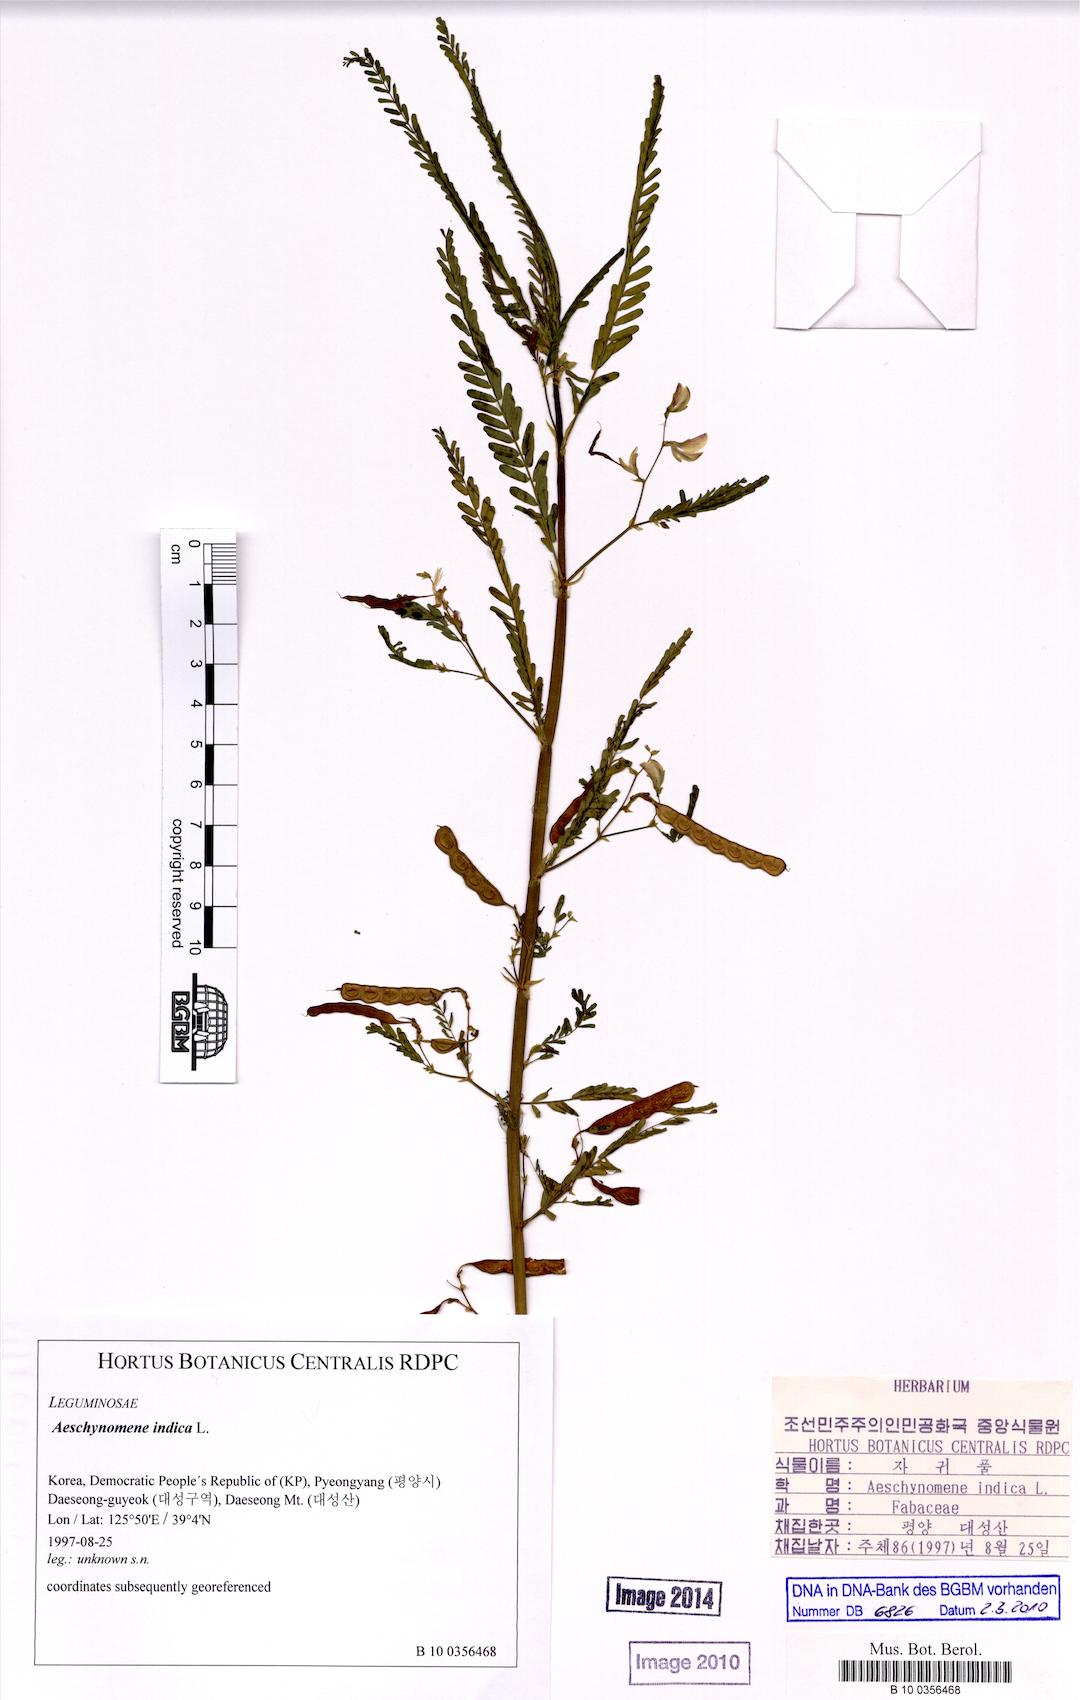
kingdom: Plantae
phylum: Tracheophyta
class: Magnoliopsida
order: Fabales
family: Fabaceae
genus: Aeschynomene
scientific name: Aeschynomene indica
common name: Indian jointvetch
